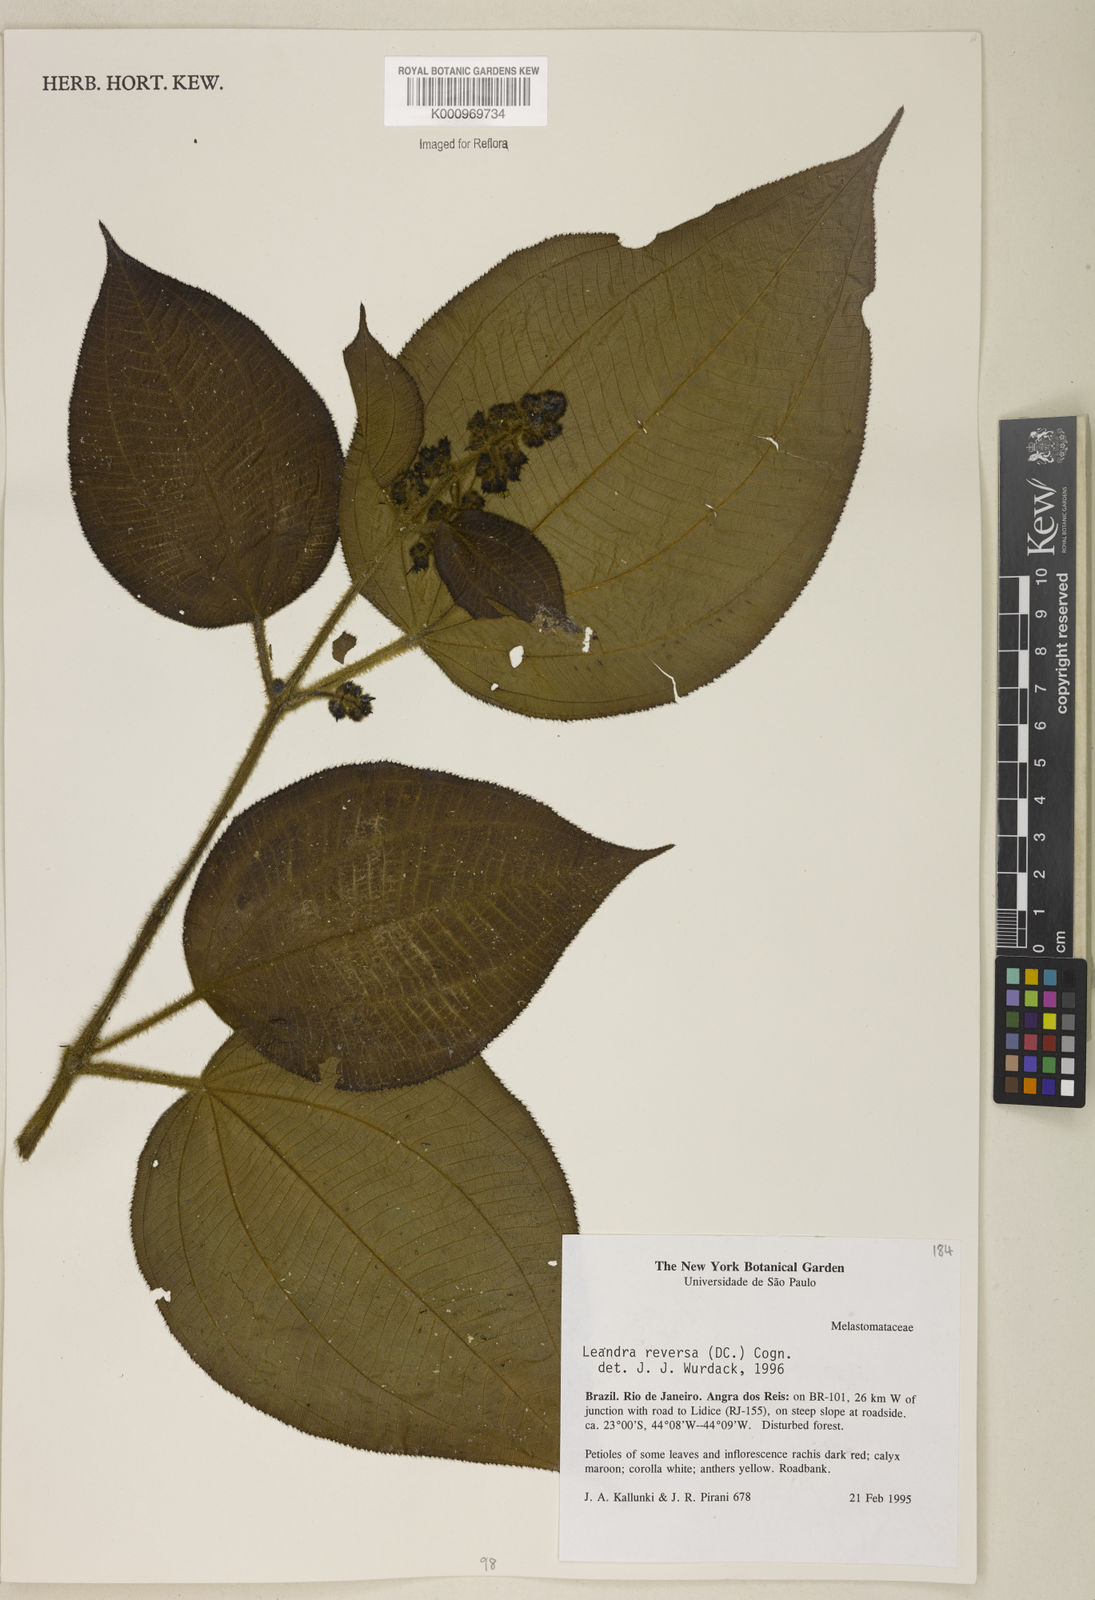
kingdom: Plantae
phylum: Tracheophyta
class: Magnoliopsida
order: Myrtales
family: Melastomataceae
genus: Miconia
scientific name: Miconia reversa
